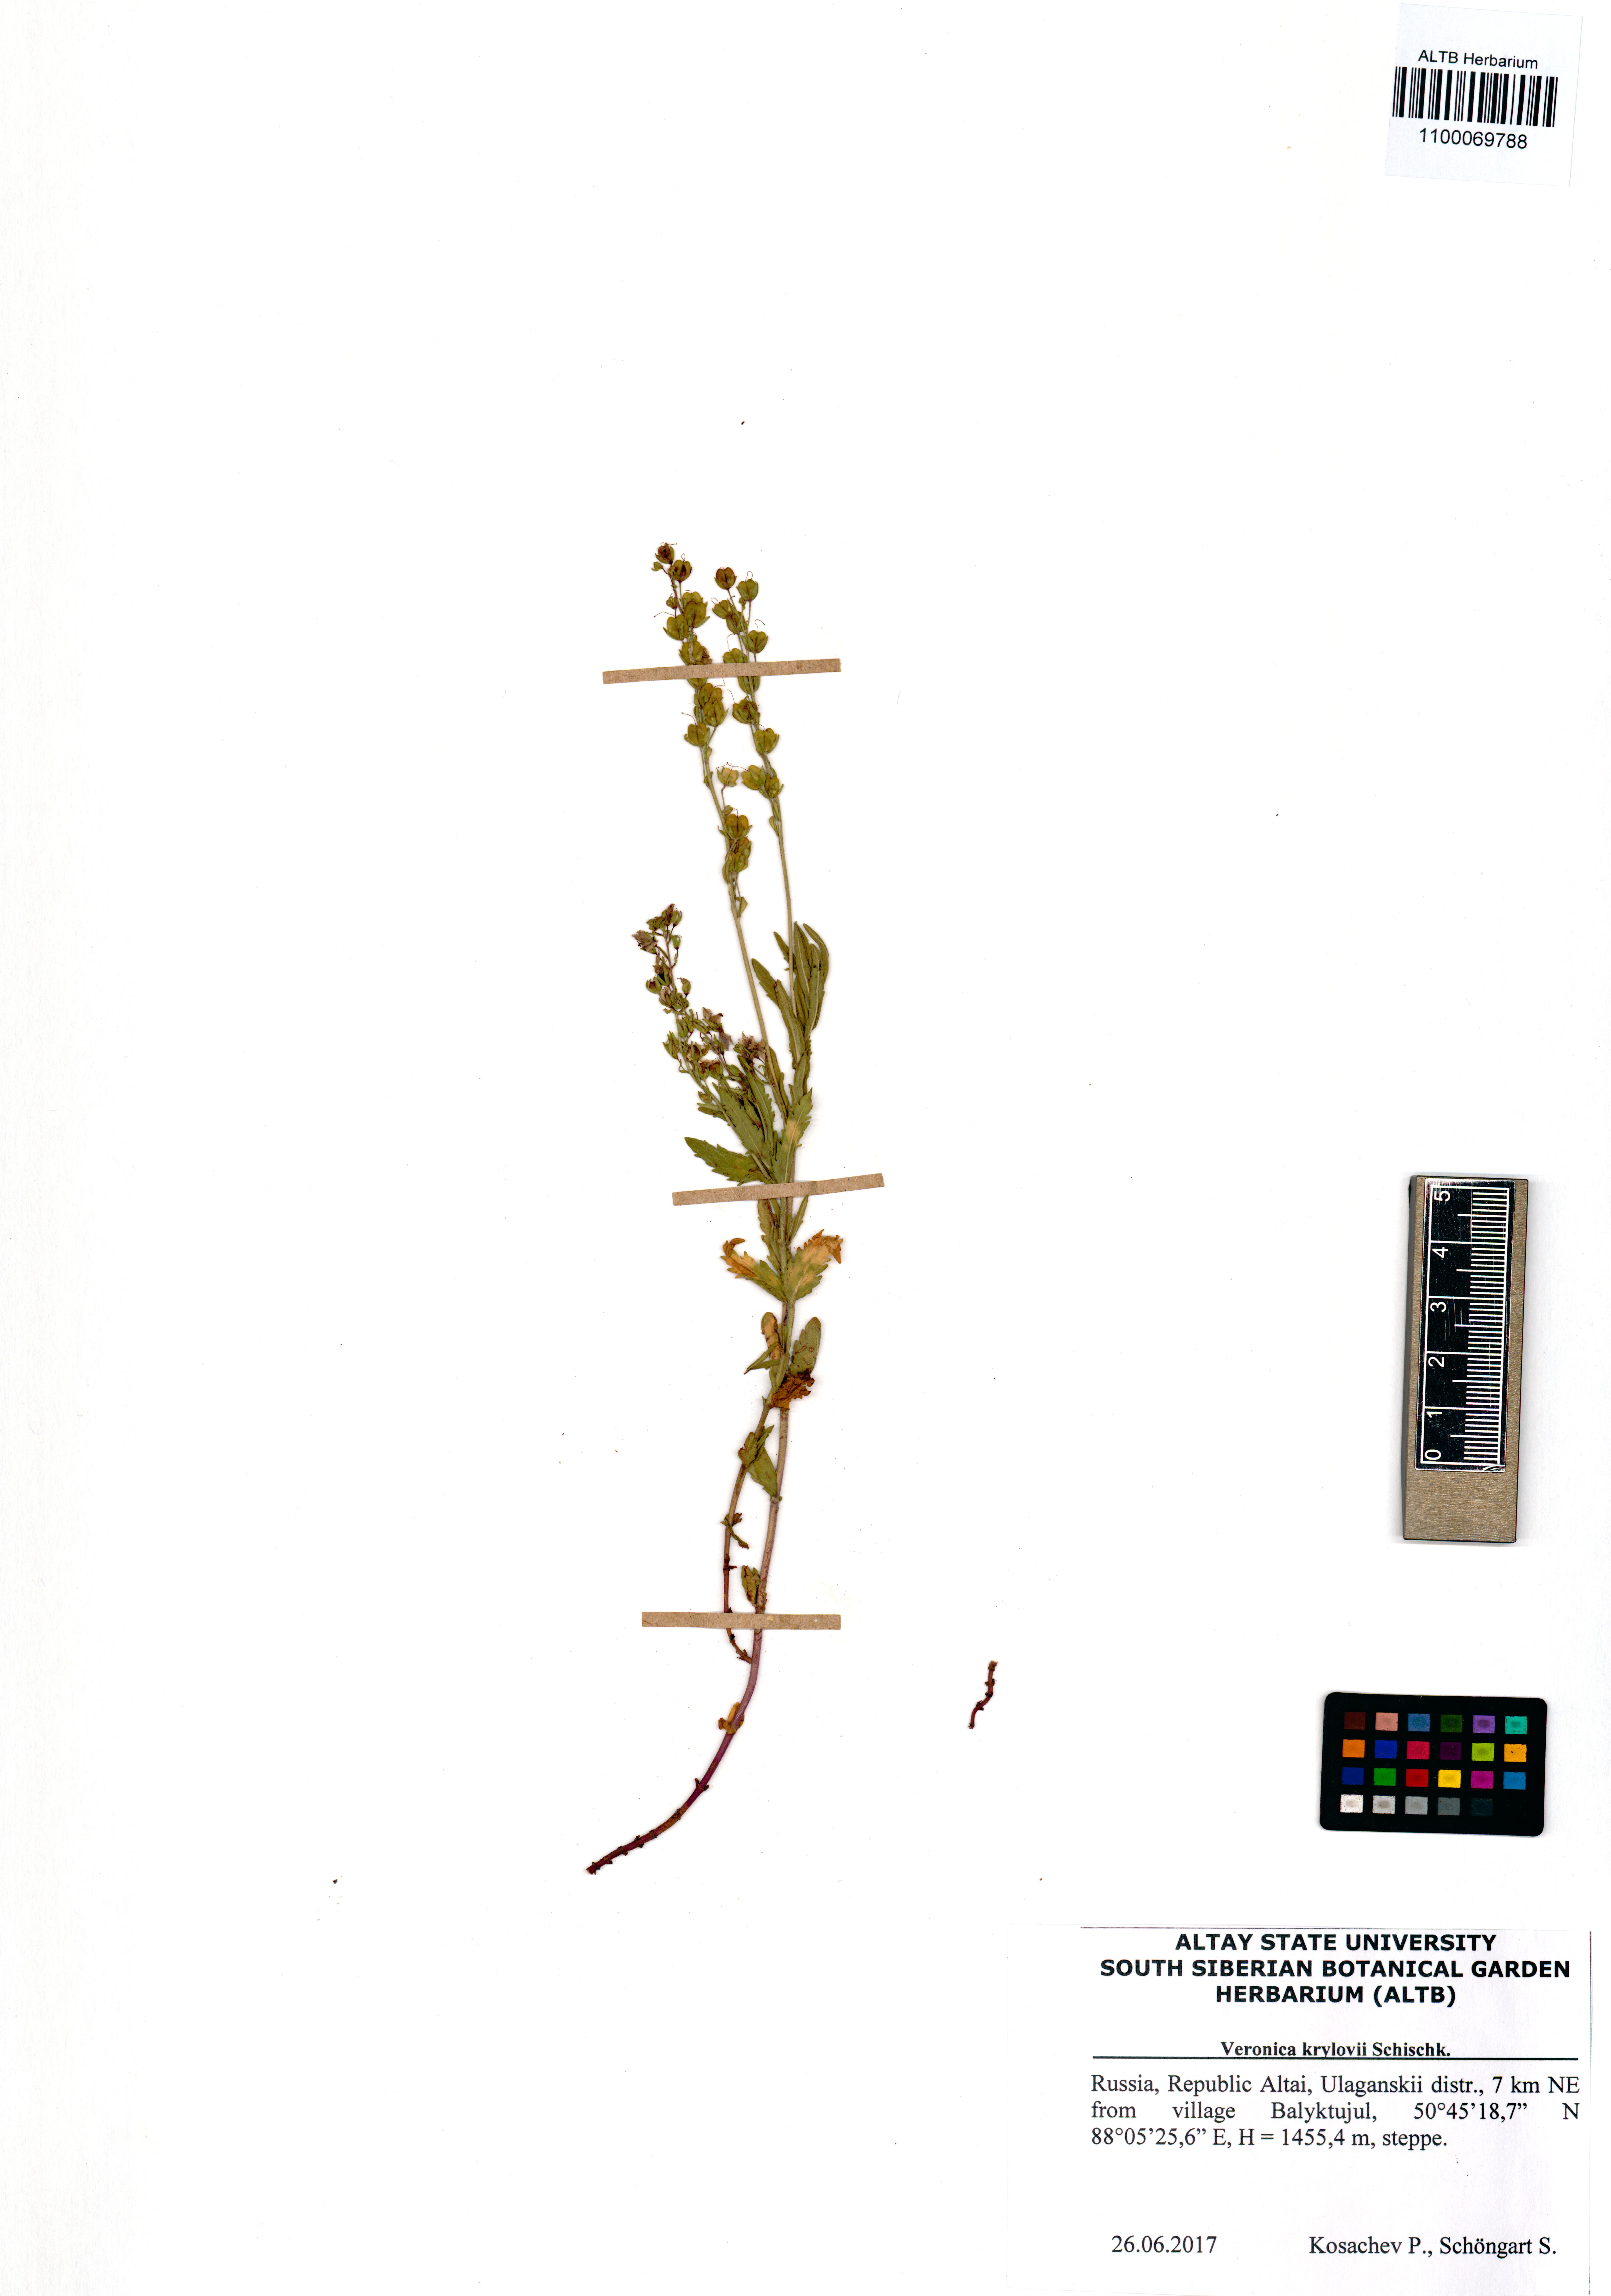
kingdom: Plantae
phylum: Tracheophyta
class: Magnoliopsida
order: Lamiales
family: Plantaginaceae
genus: Veronica
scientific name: Veronica krylovii
